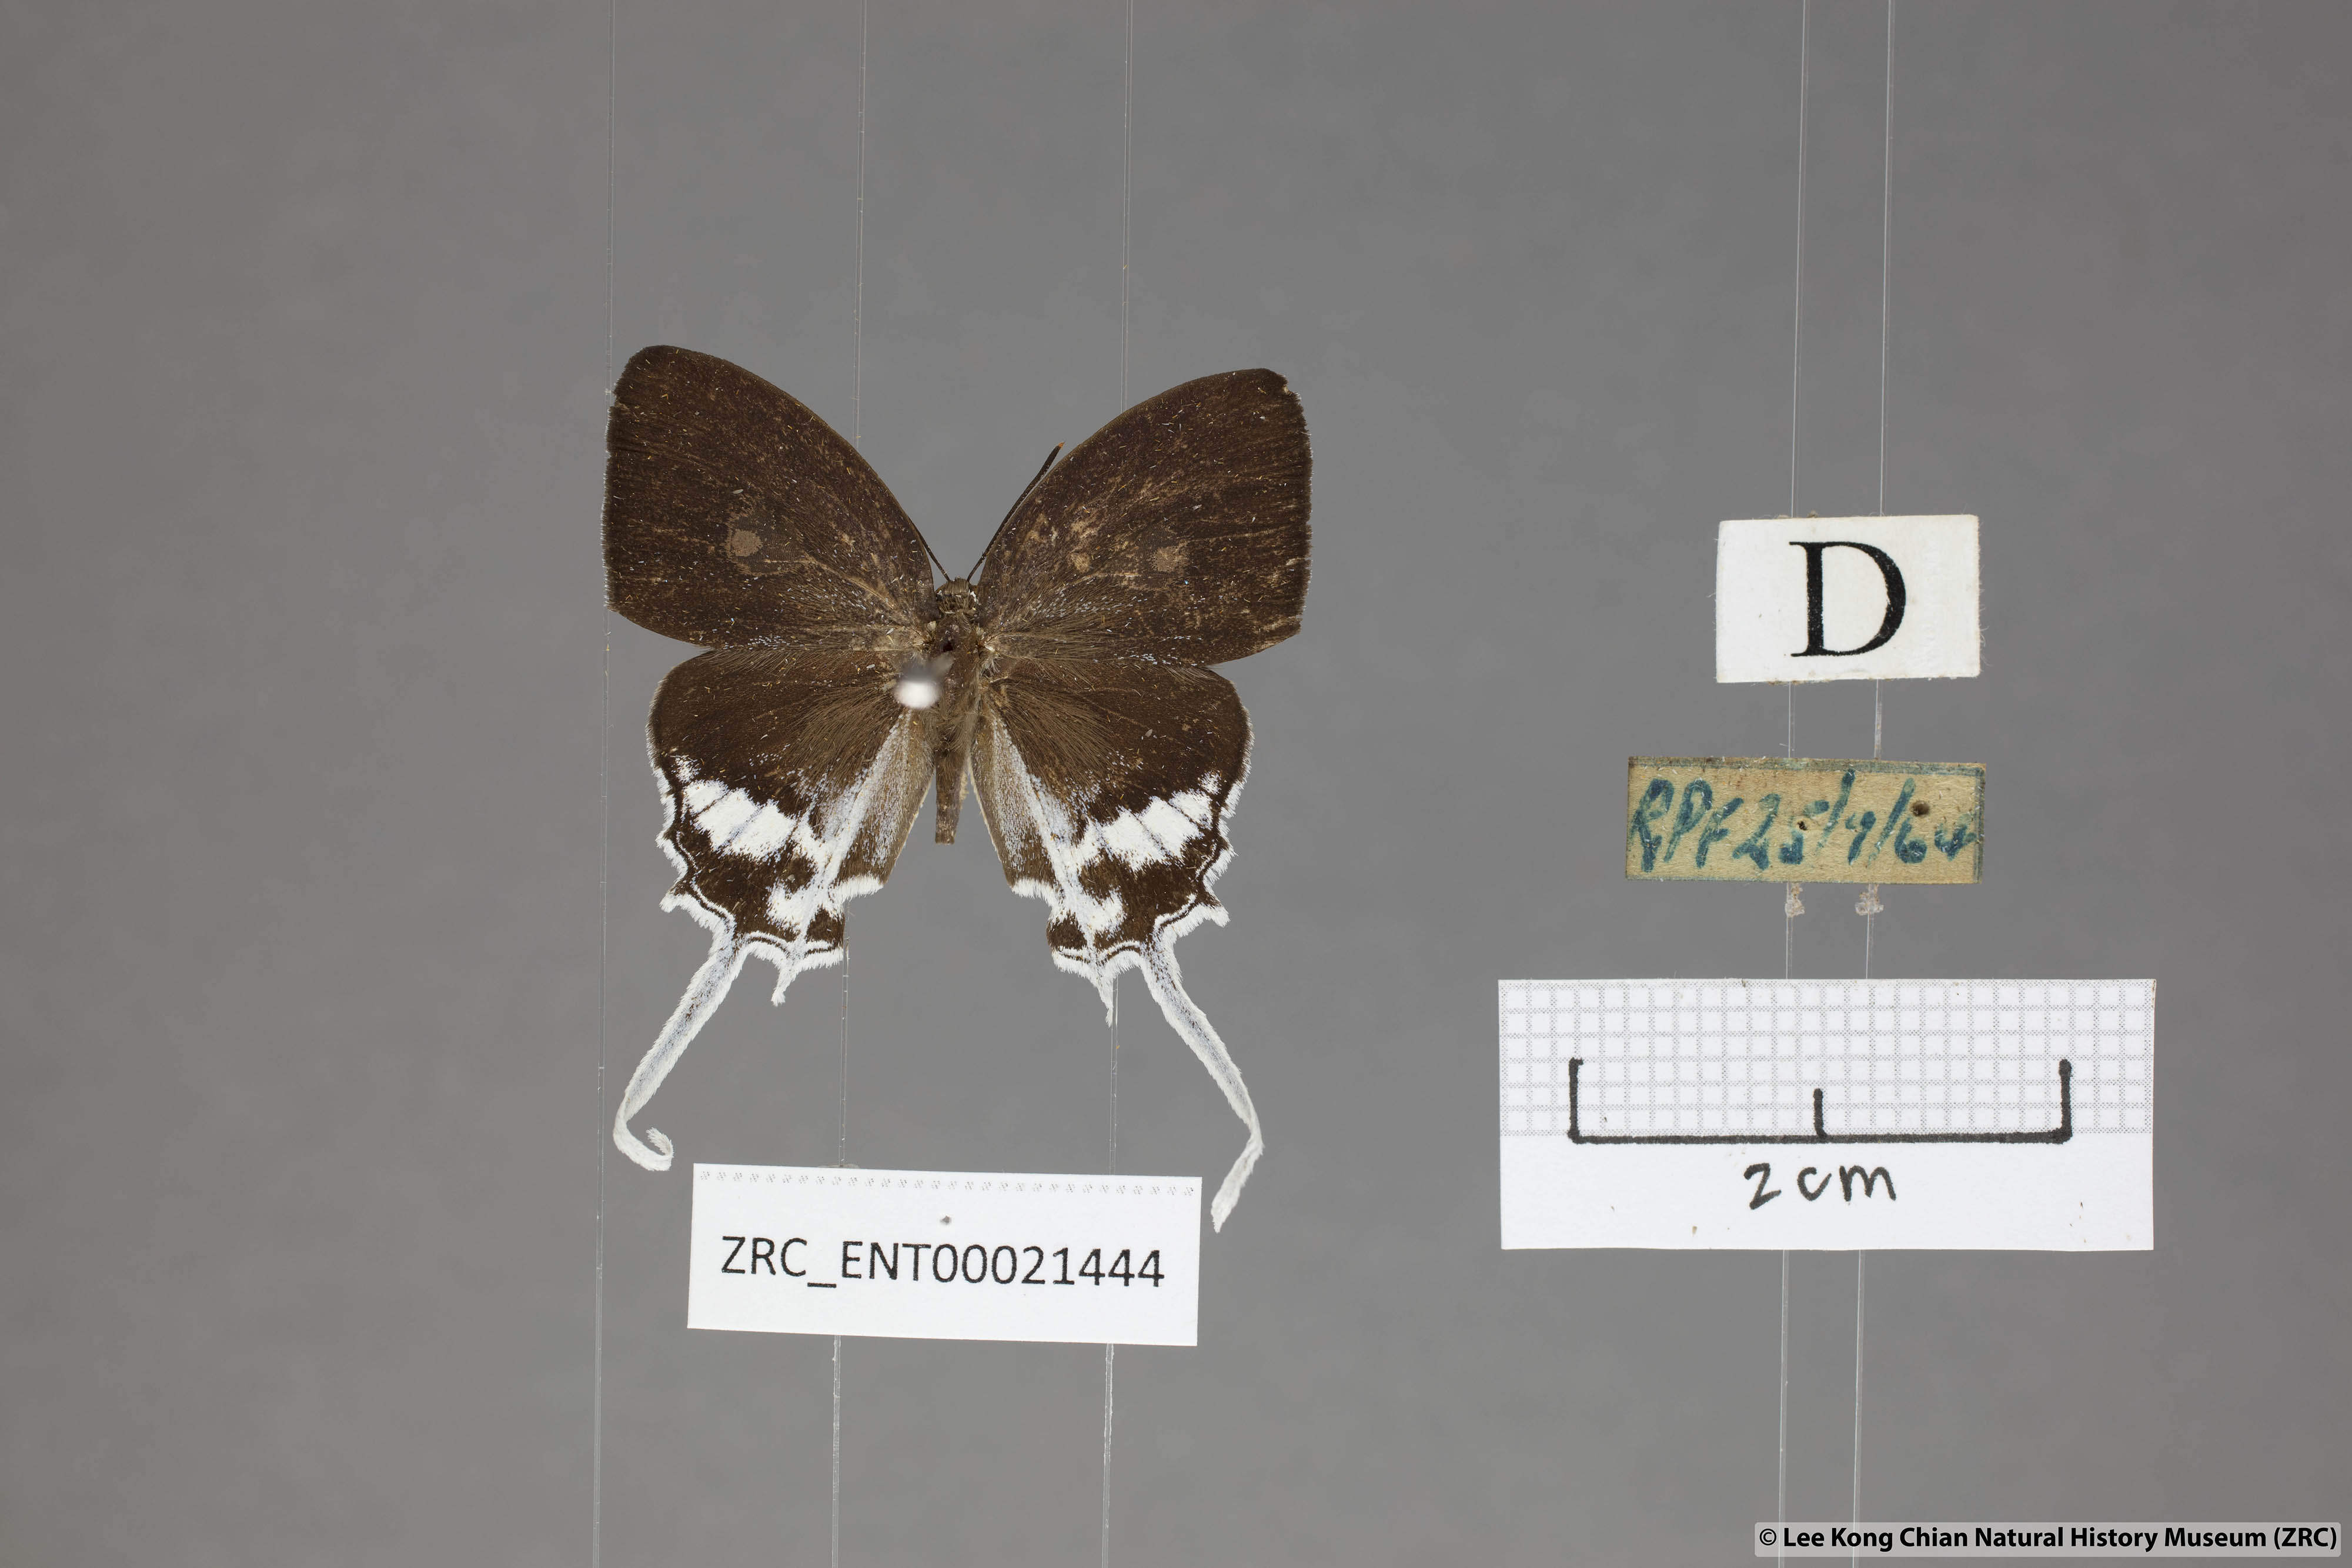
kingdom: Animalia
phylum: Arthropoda
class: Insecta
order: Lepidoptera
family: Lycaenidae
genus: Eooxylides
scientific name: Eooxylides tharis
